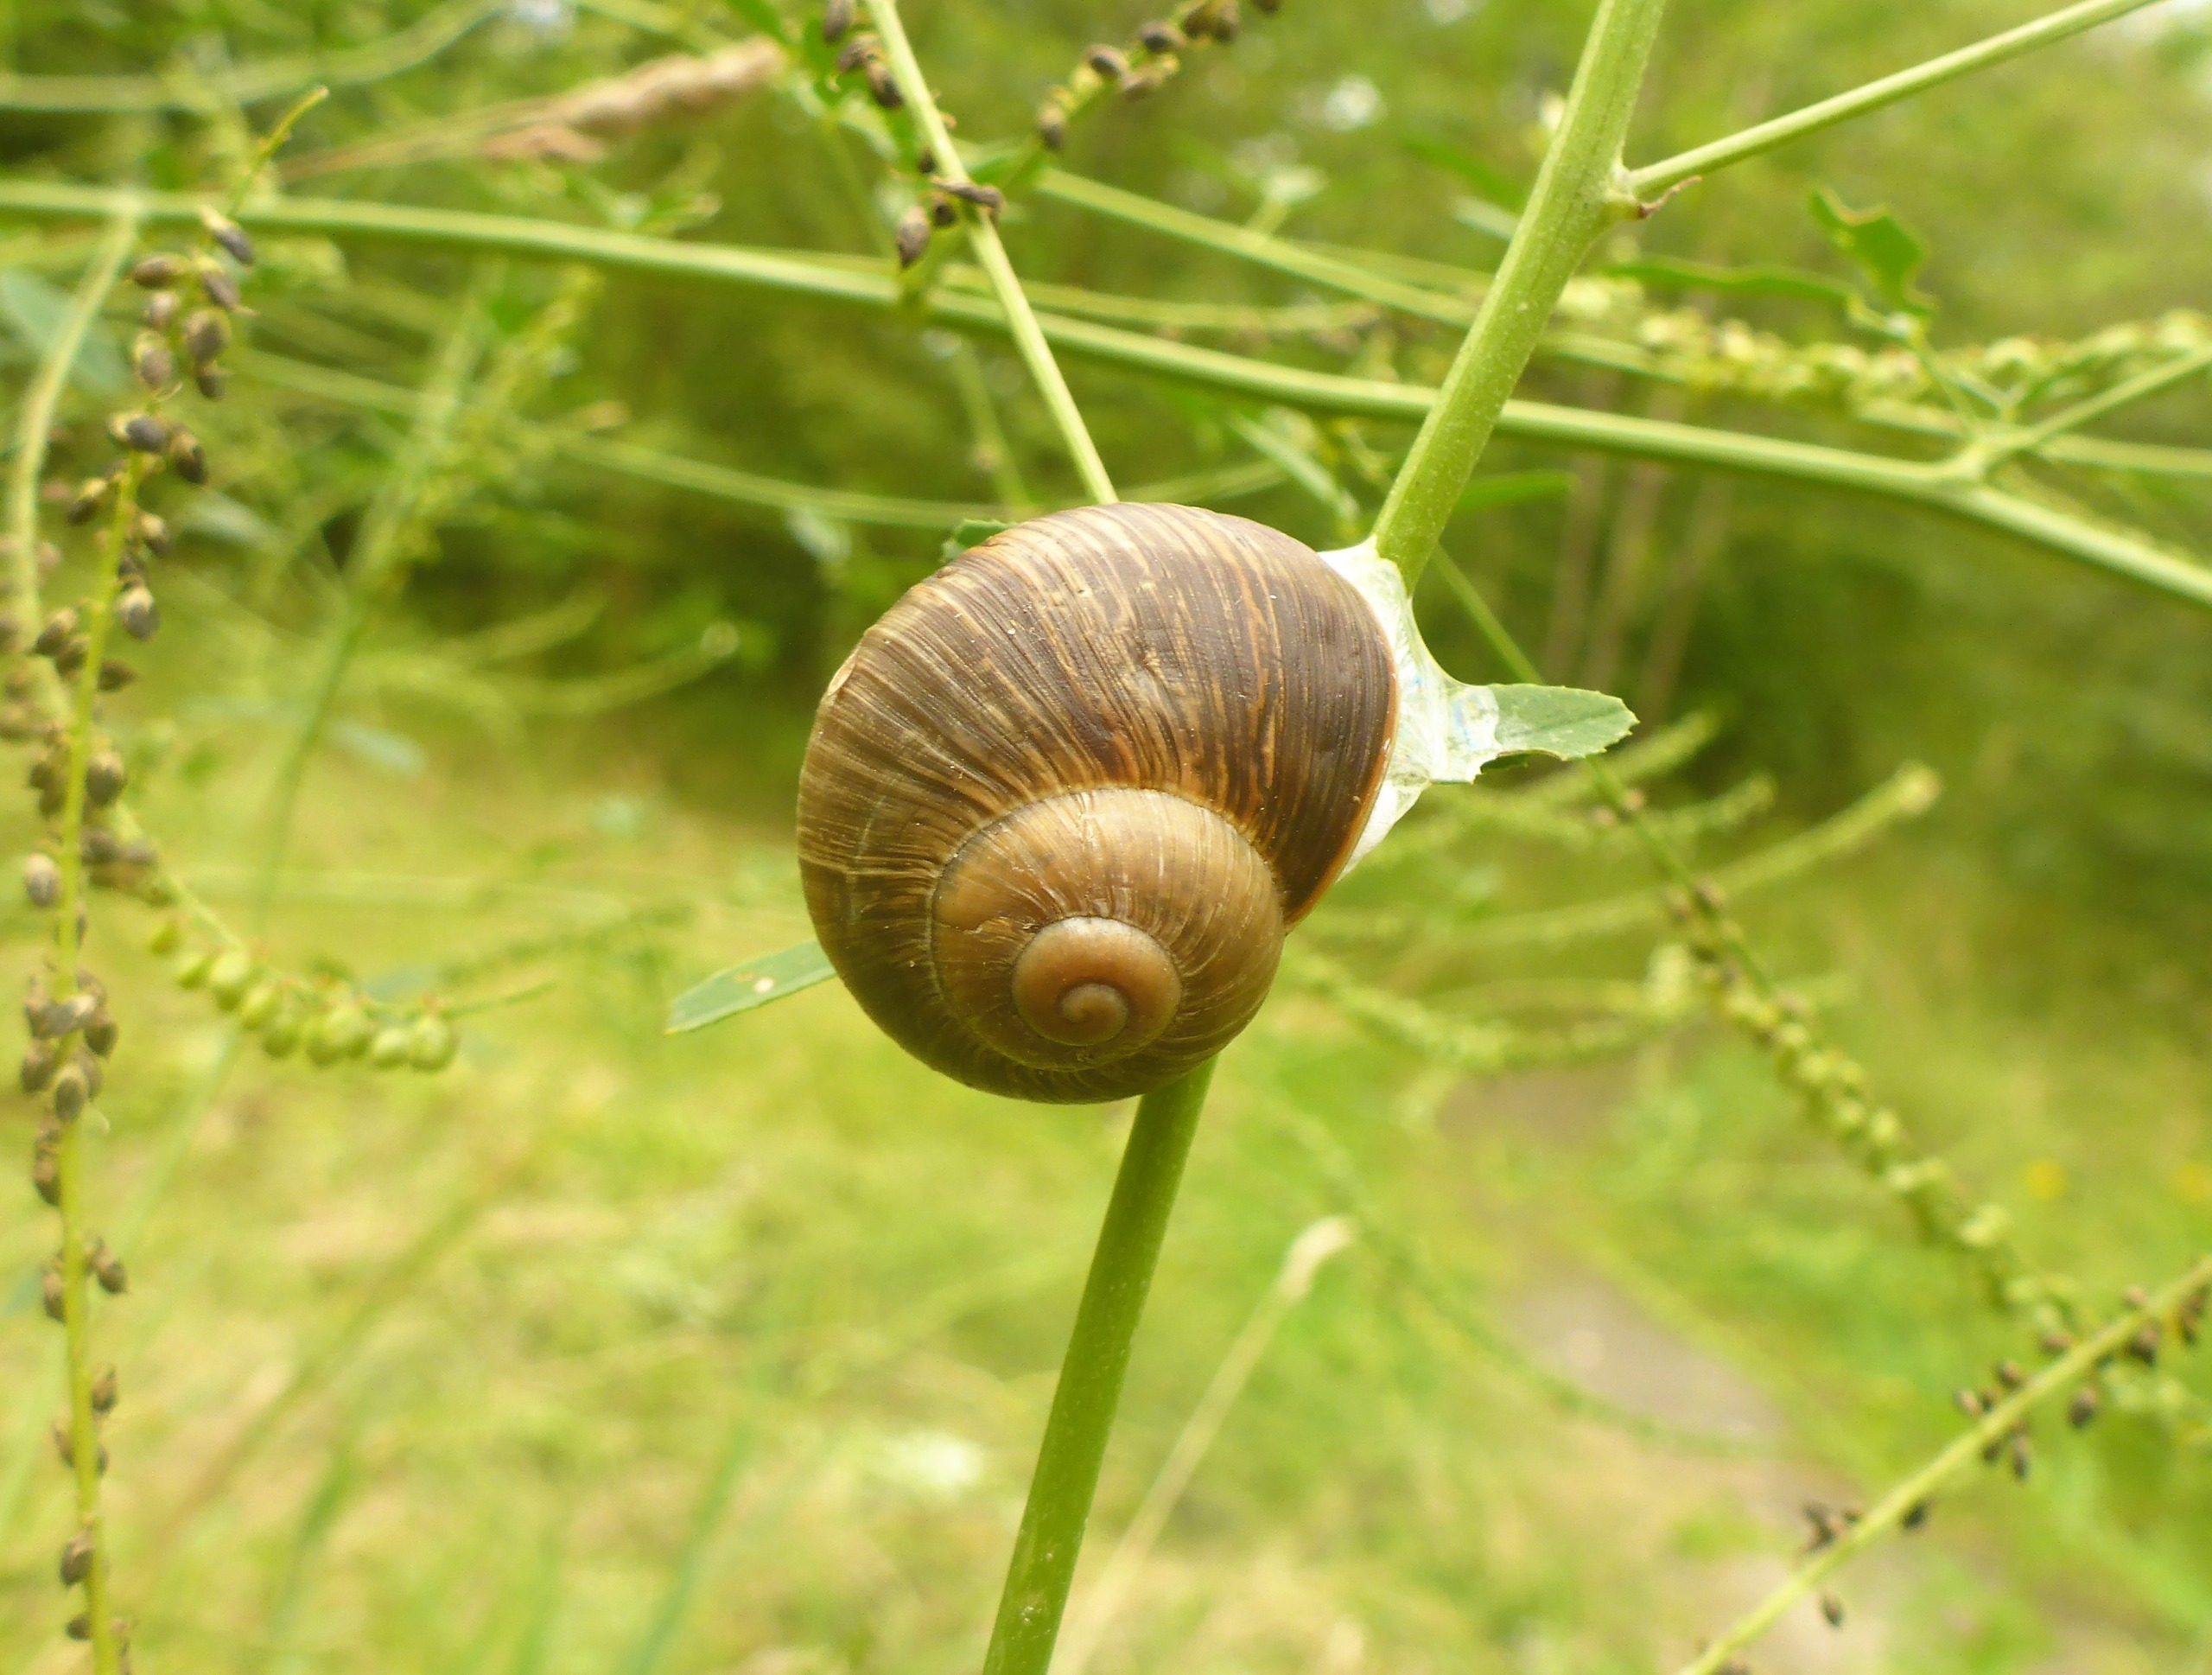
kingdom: Animalia
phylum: Mollusca
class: Gastropoda
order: Stylommatophora
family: Helicidae
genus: Helix
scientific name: Helix pomatia
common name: Vinbjergsnegl
